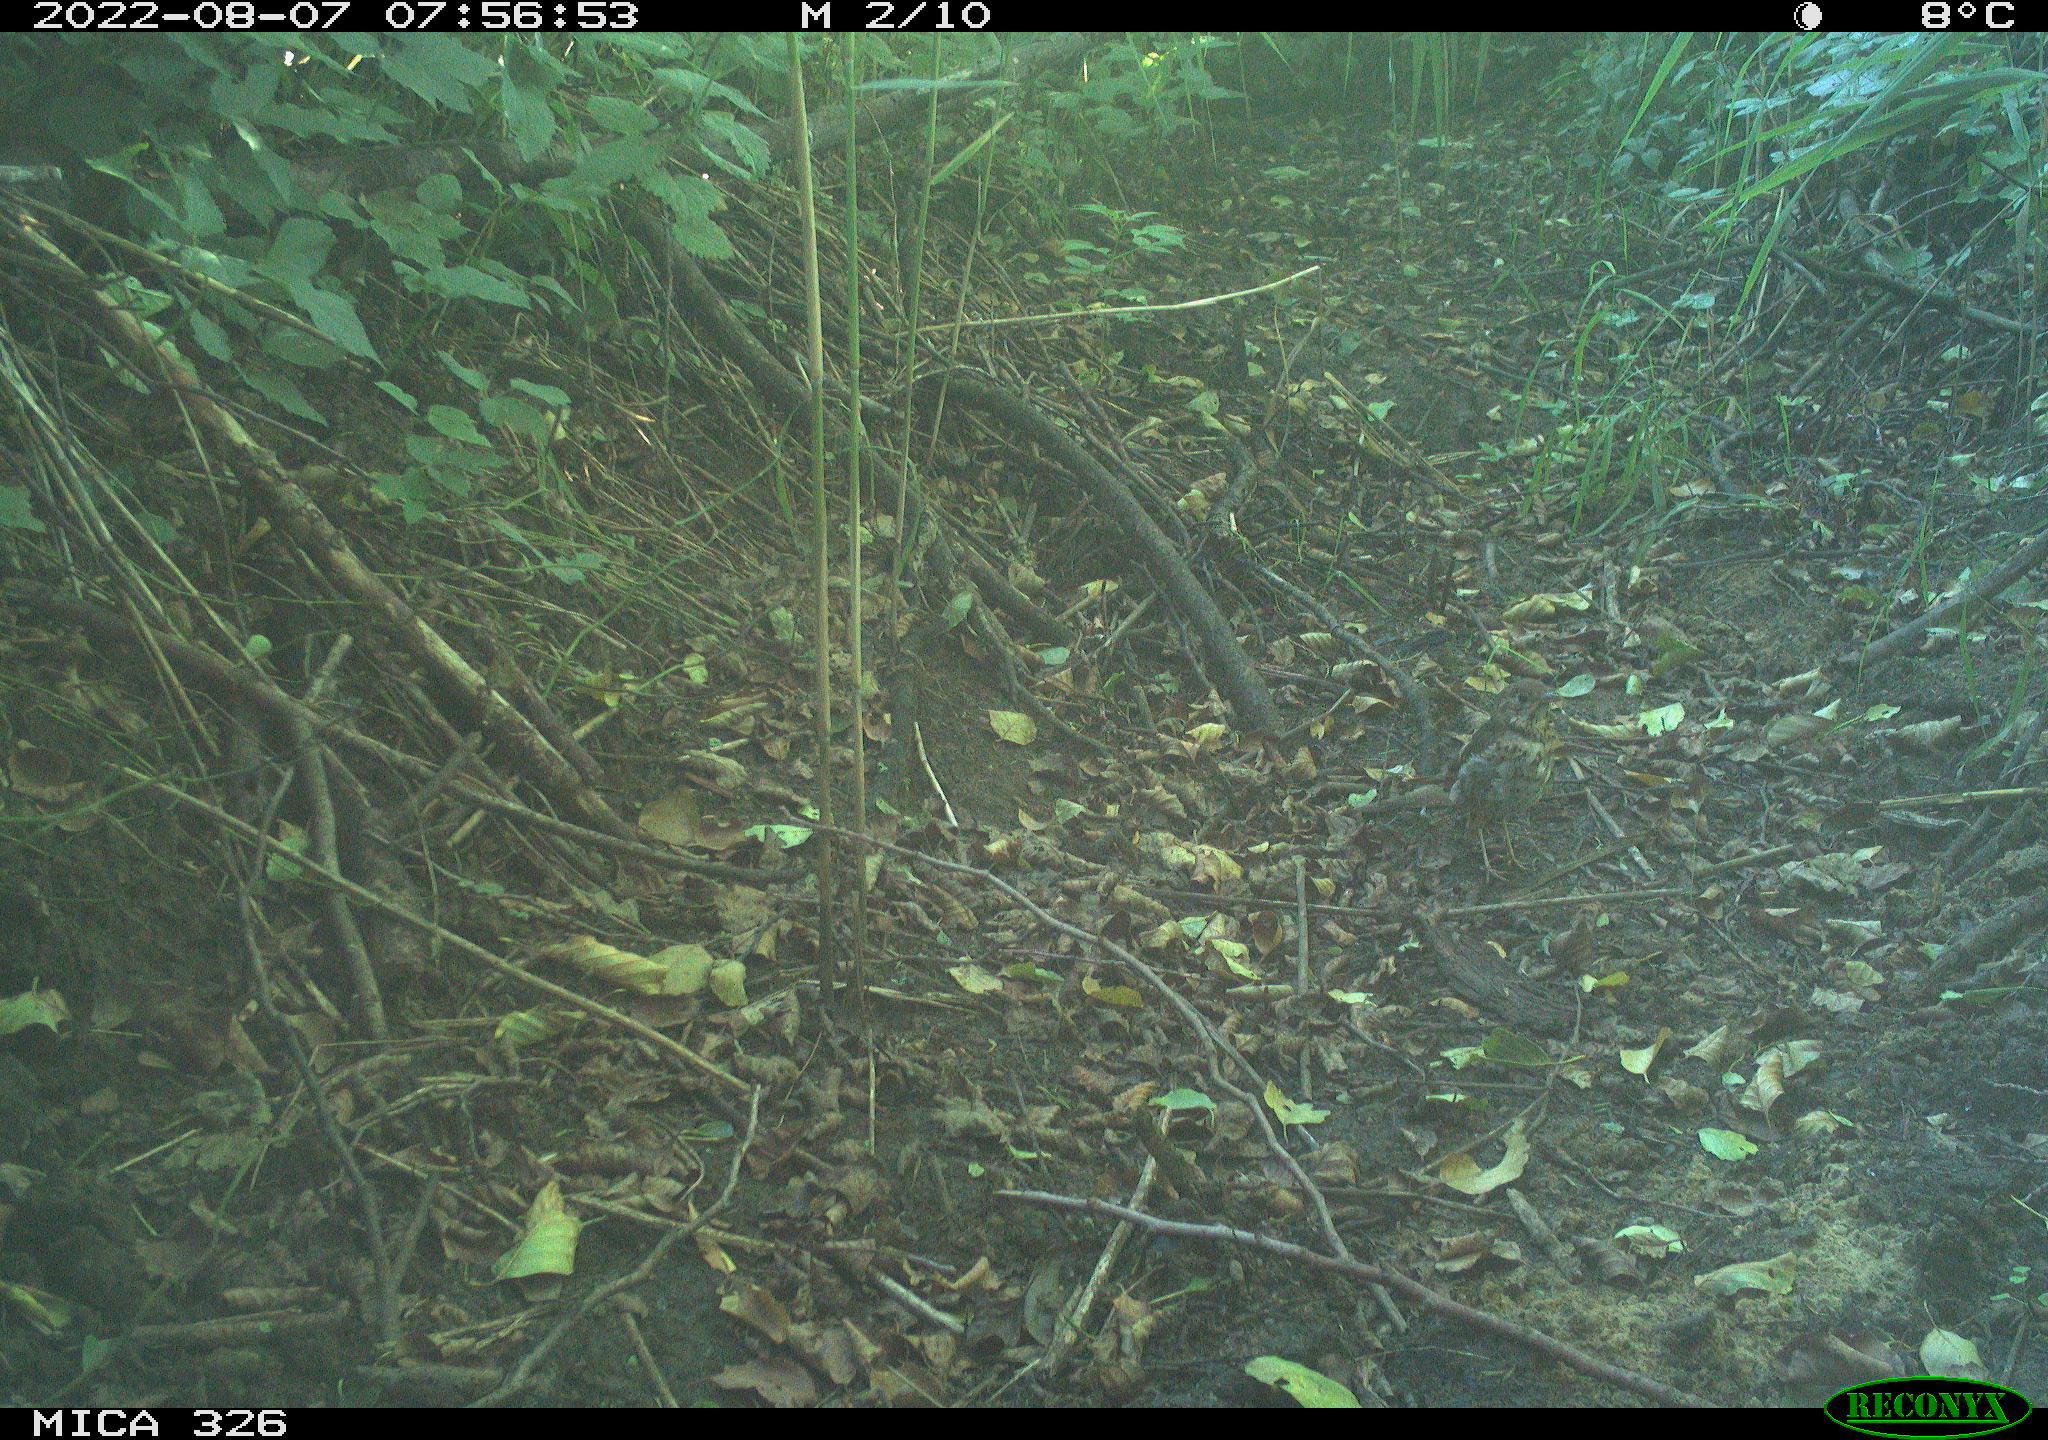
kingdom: Animalia
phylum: Chordata
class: Aves
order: Passeriformes
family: Turdidae
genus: Turdus
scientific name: Turdus philomelos
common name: Song thrush
